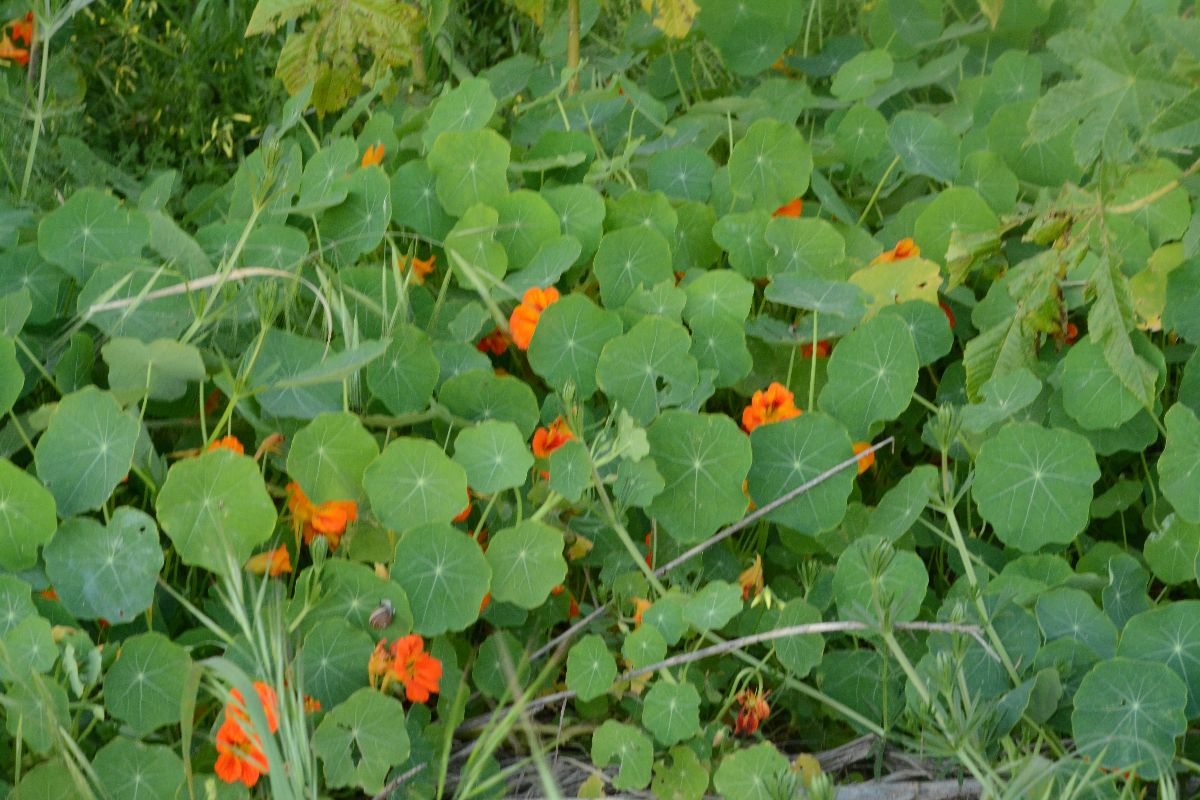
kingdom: Plantae
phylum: Tracheophyta
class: Magnoliopsida
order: Brassicales
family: Tropaeolaceae
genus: Tropaeolum
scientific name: Tropaeolum majus
